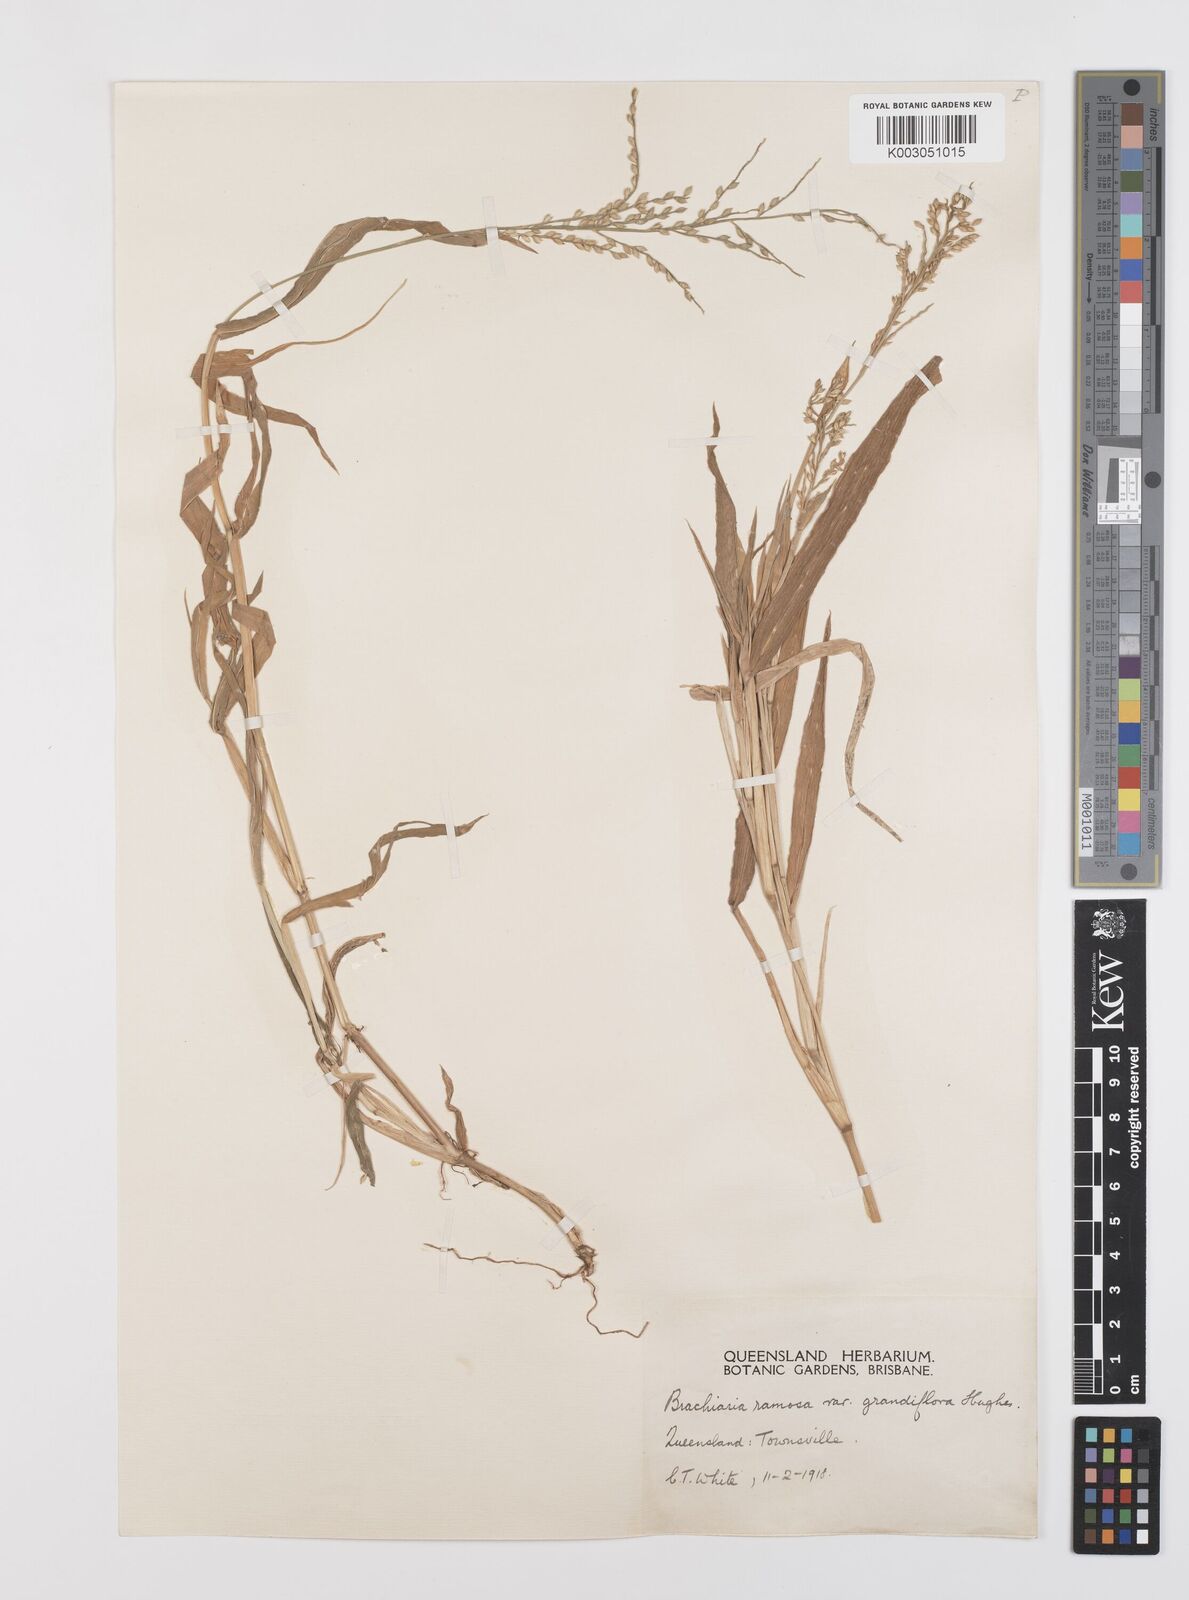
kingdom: Plantae
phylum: Tracheophyta
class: Liliopsida
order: Poales
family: Poaceae
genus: Urochloa
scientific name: Urochloa pubigera
